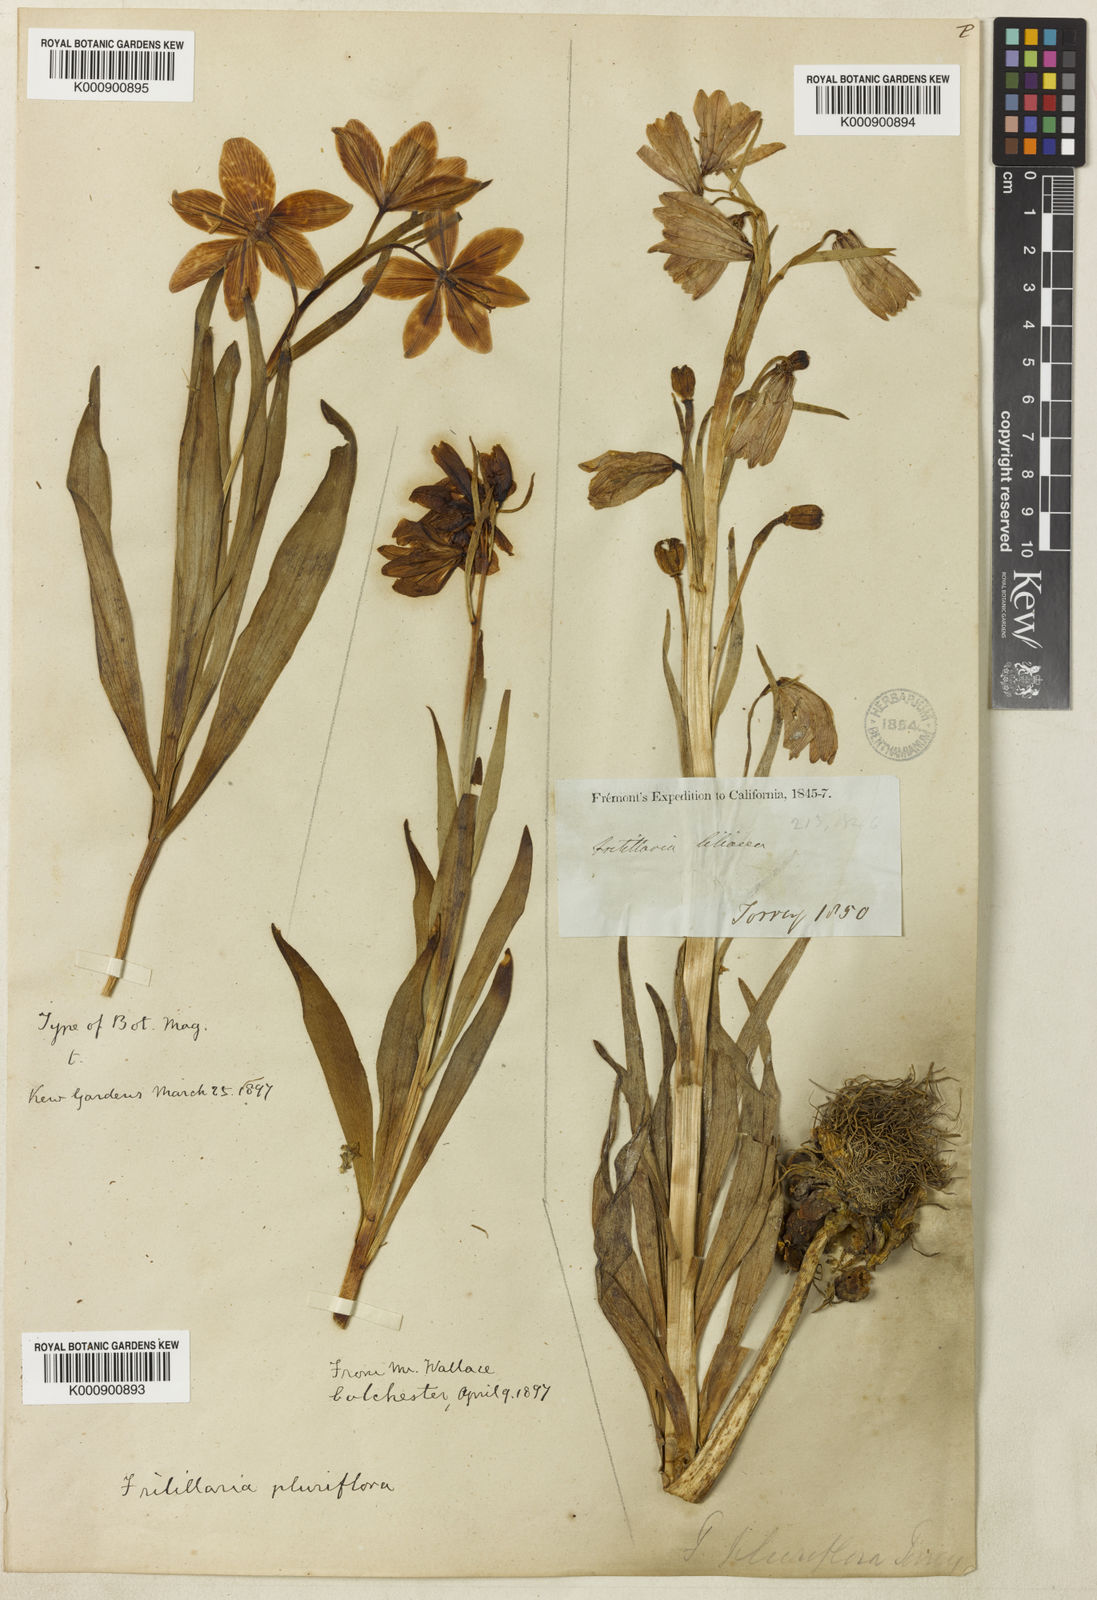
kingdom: Plantae
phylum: Tracheophyta
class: Liliopsida
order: Liliales
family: Liliaceae
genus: Fritillaria
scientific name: Fritillaria pluriflora
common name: Adobe-lily
